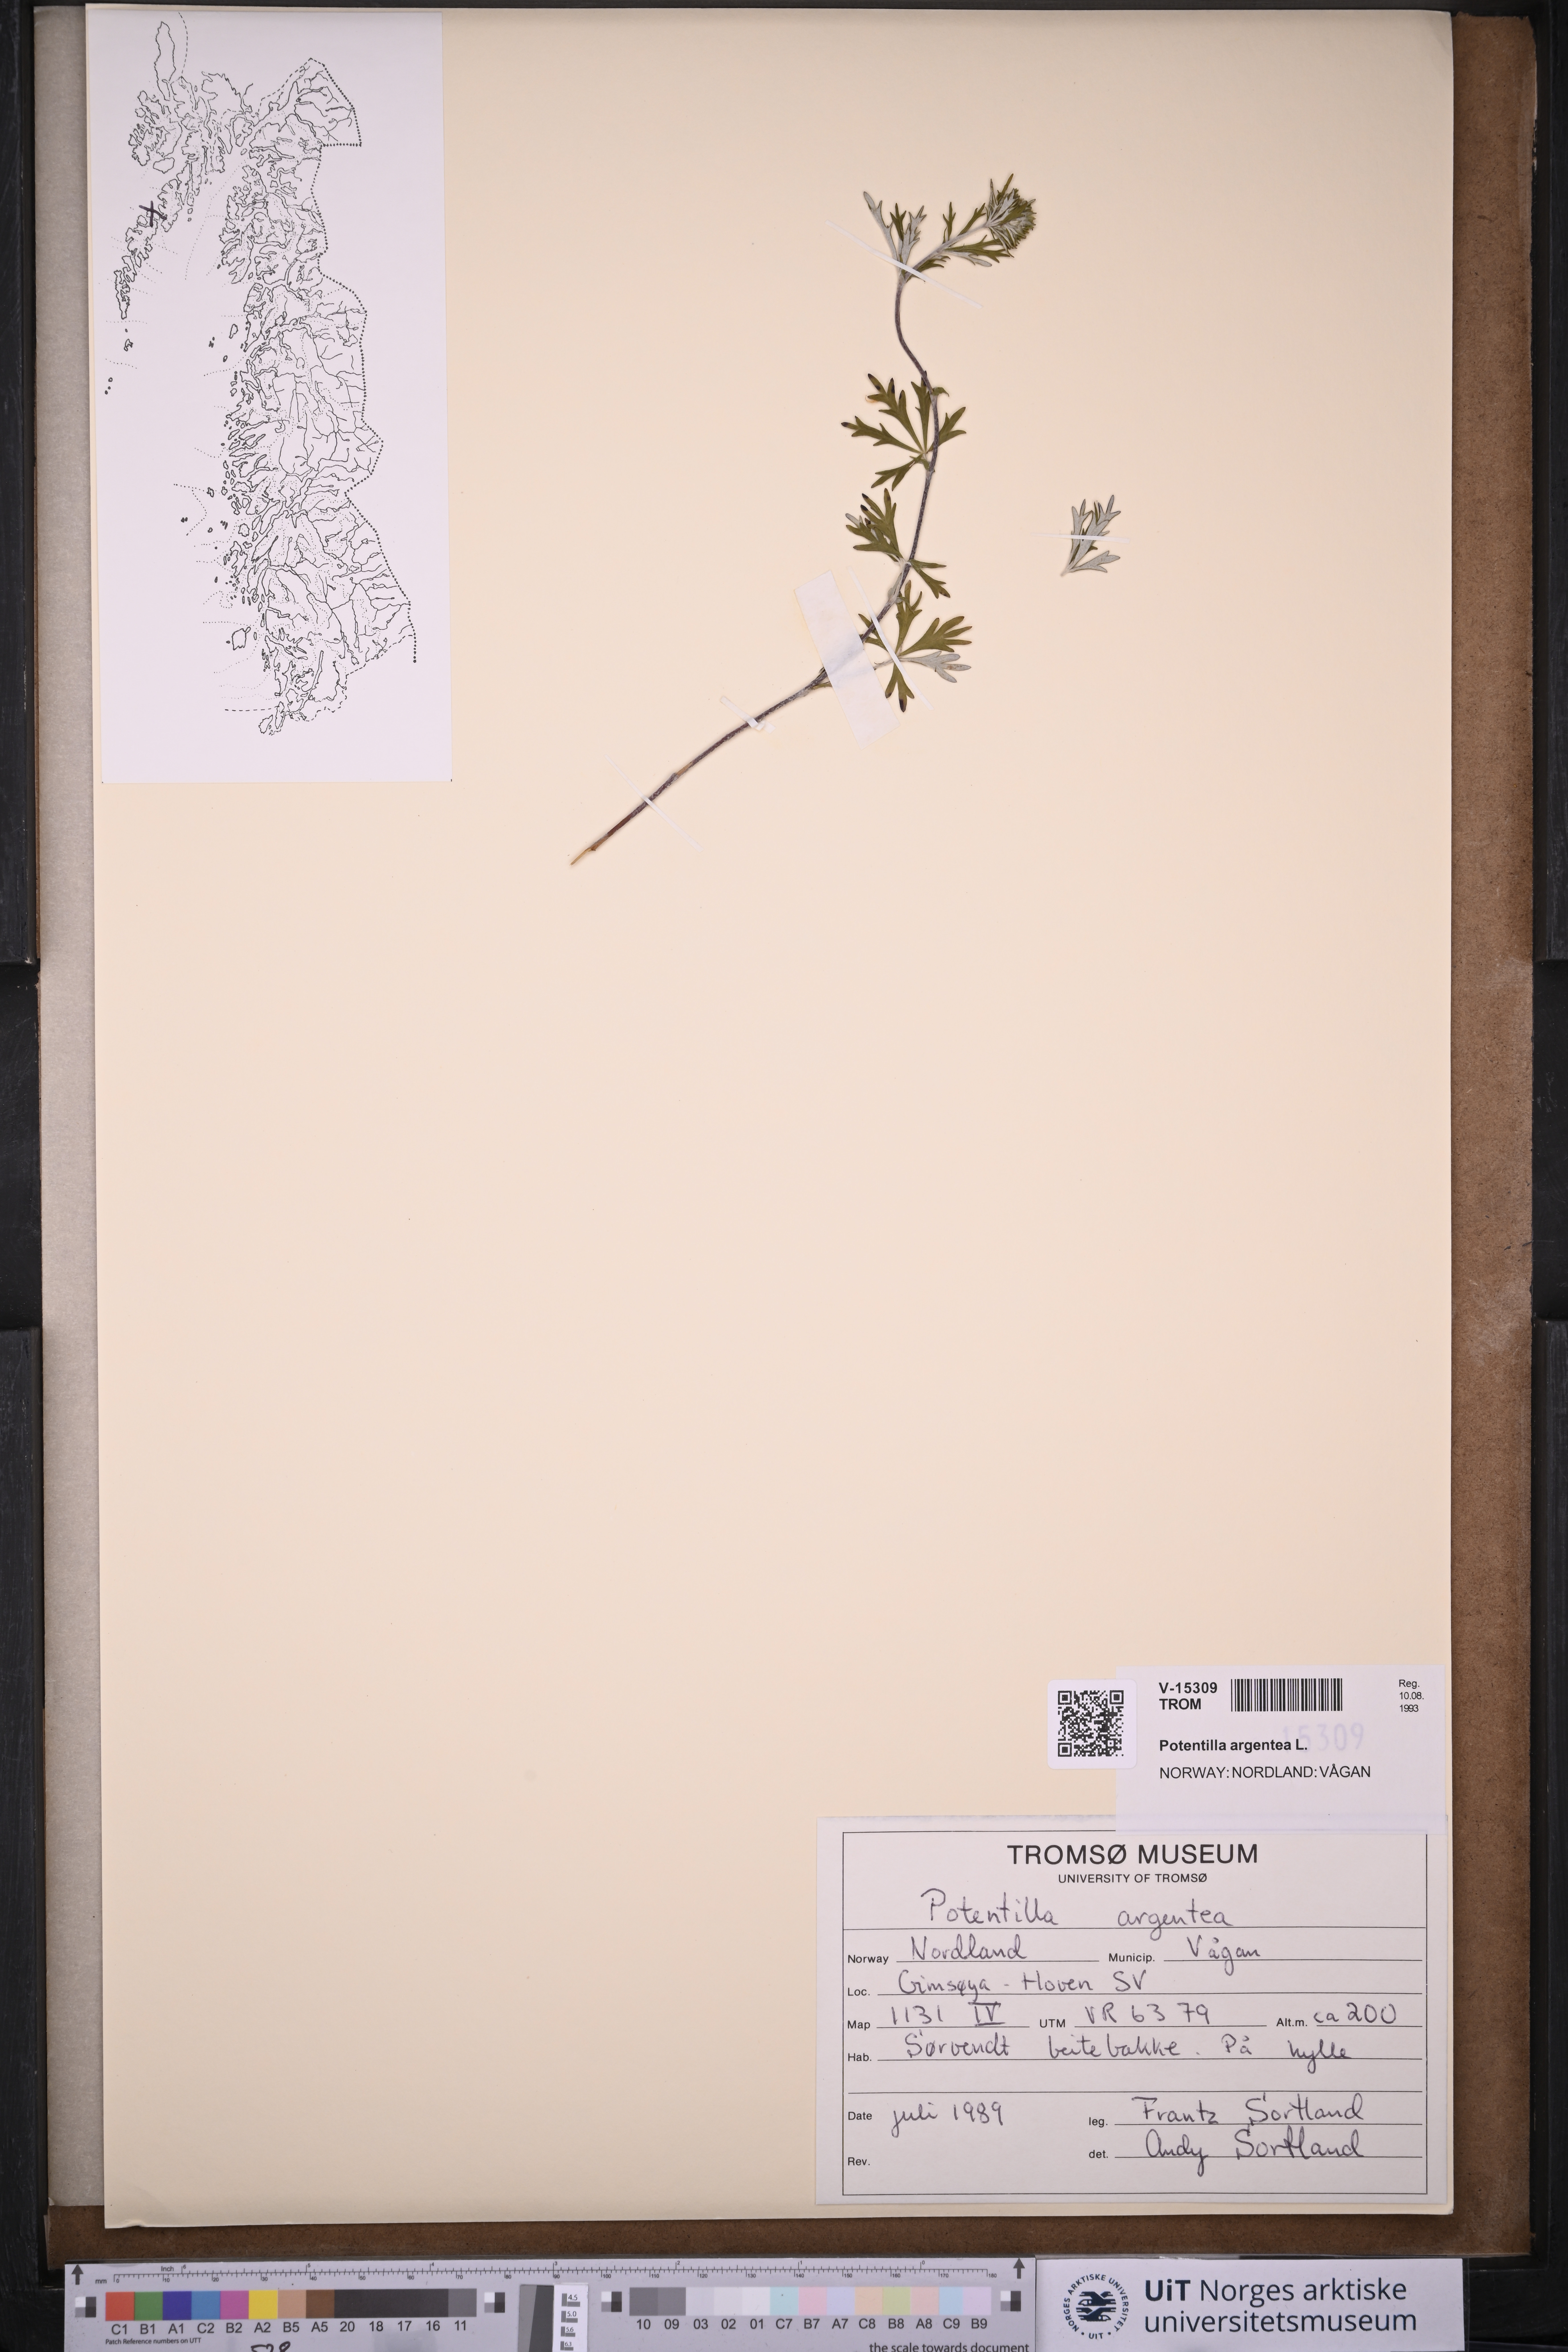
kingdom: Plantae
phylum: Tracheophyta
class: Magnoliopsida
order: Rosales
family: Rosaceae
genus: Potentilla
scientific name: Potentilla argentea
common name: Hoary cinquefoil
